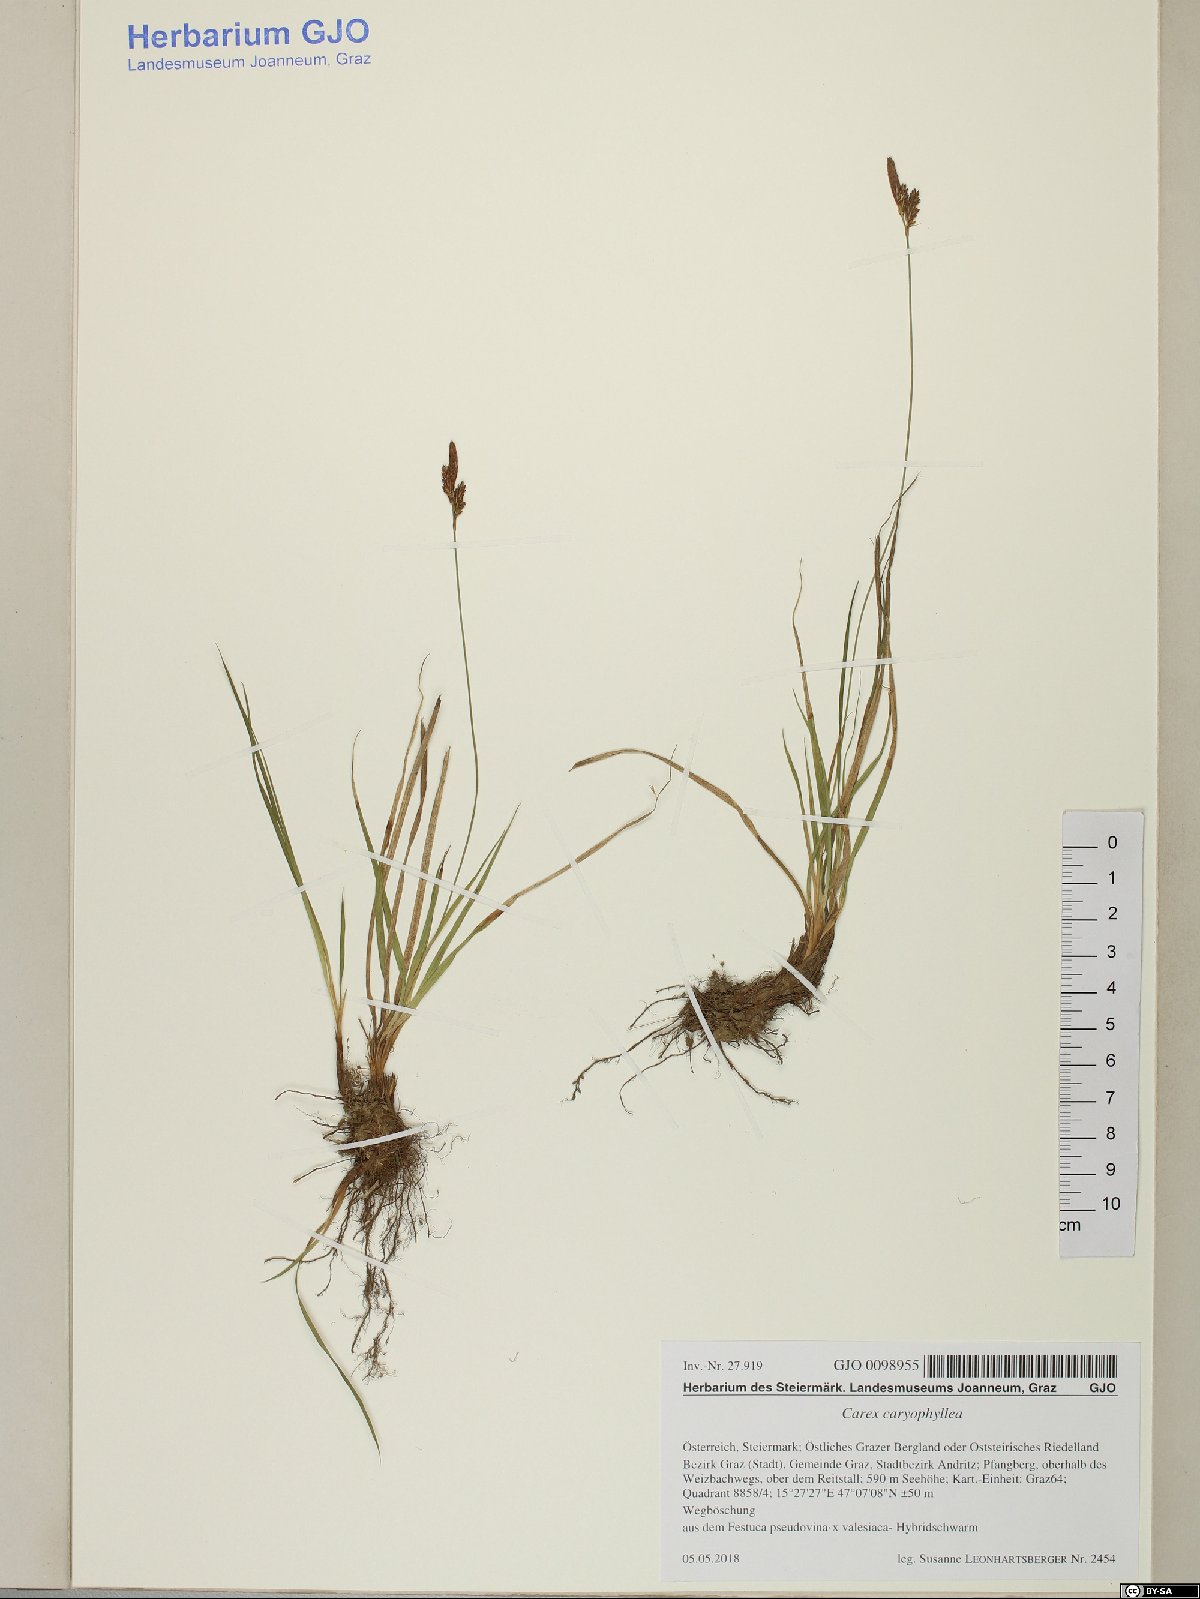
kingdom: Plantae
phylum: Tracheophyta
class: Liliopsida
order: Poales
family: Cyperaceae
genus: Carex
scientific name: Carex caryophyllea
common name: Spring sedge
